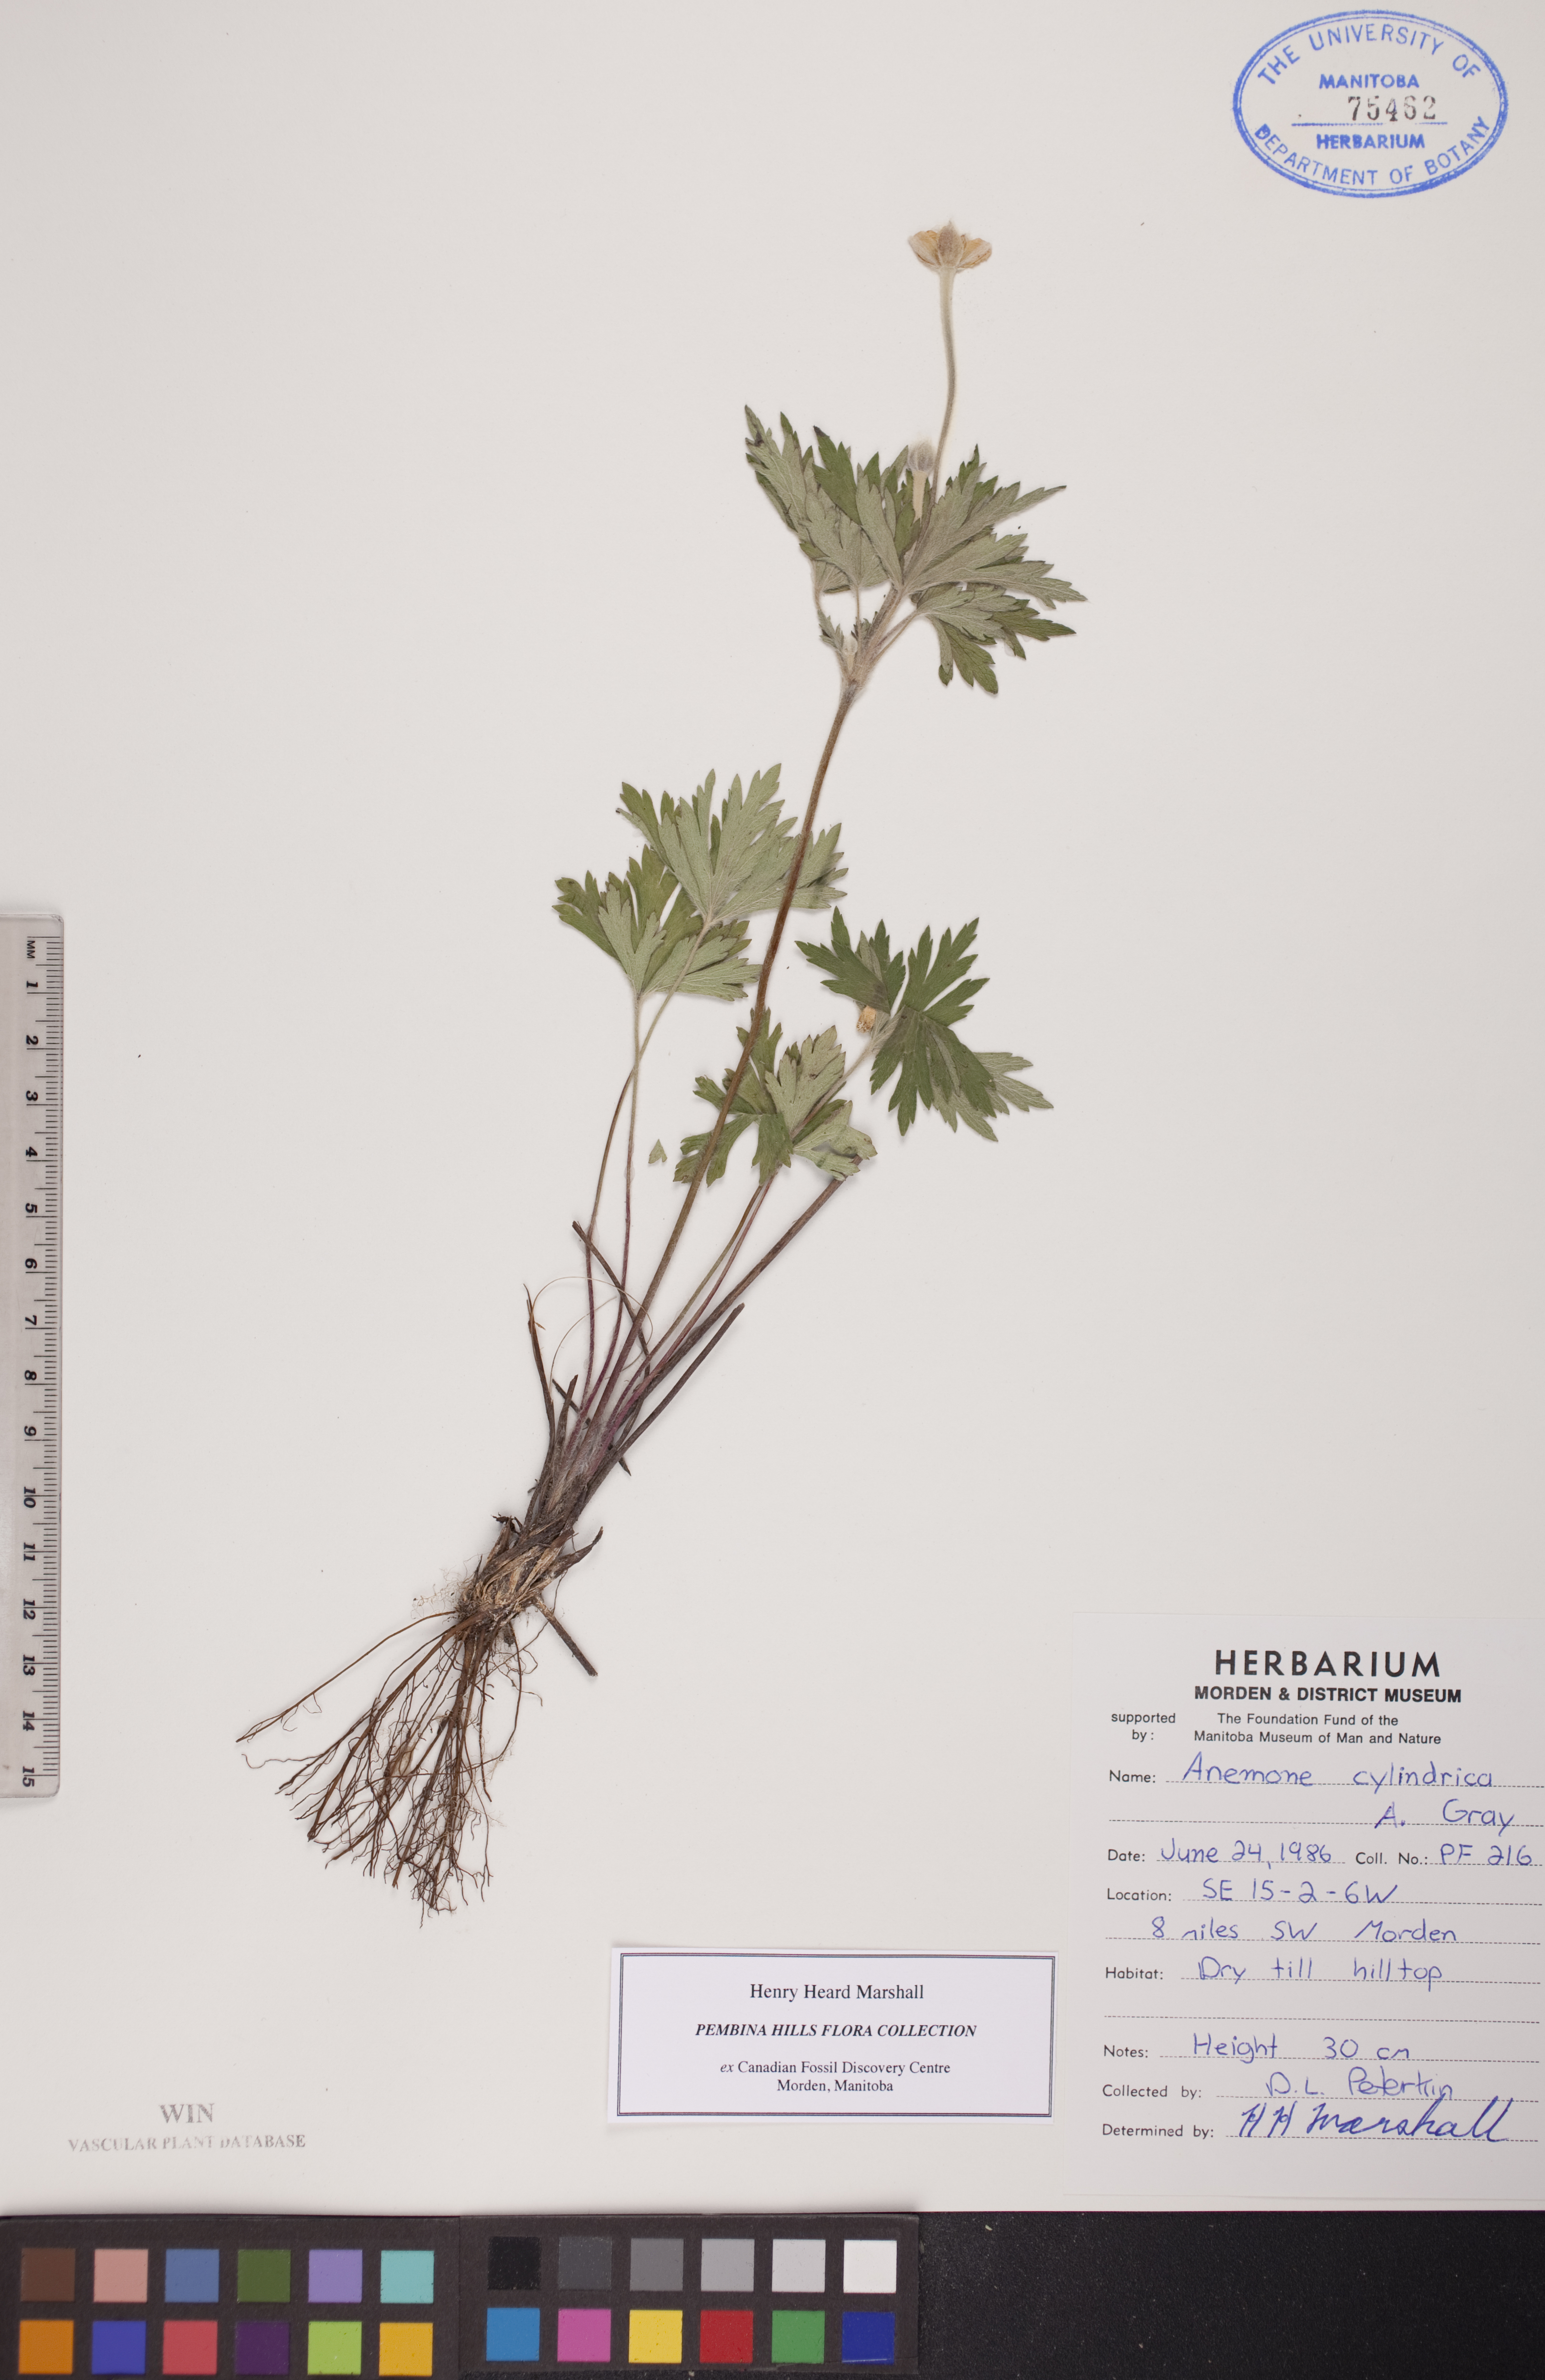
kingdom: Plantae
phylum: Tracheophyta
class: Magnoliopsida
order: Ranunculales
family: Ranunculaceae
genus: Anemone
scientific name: Anemone cylindrica
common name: Candle anemone
